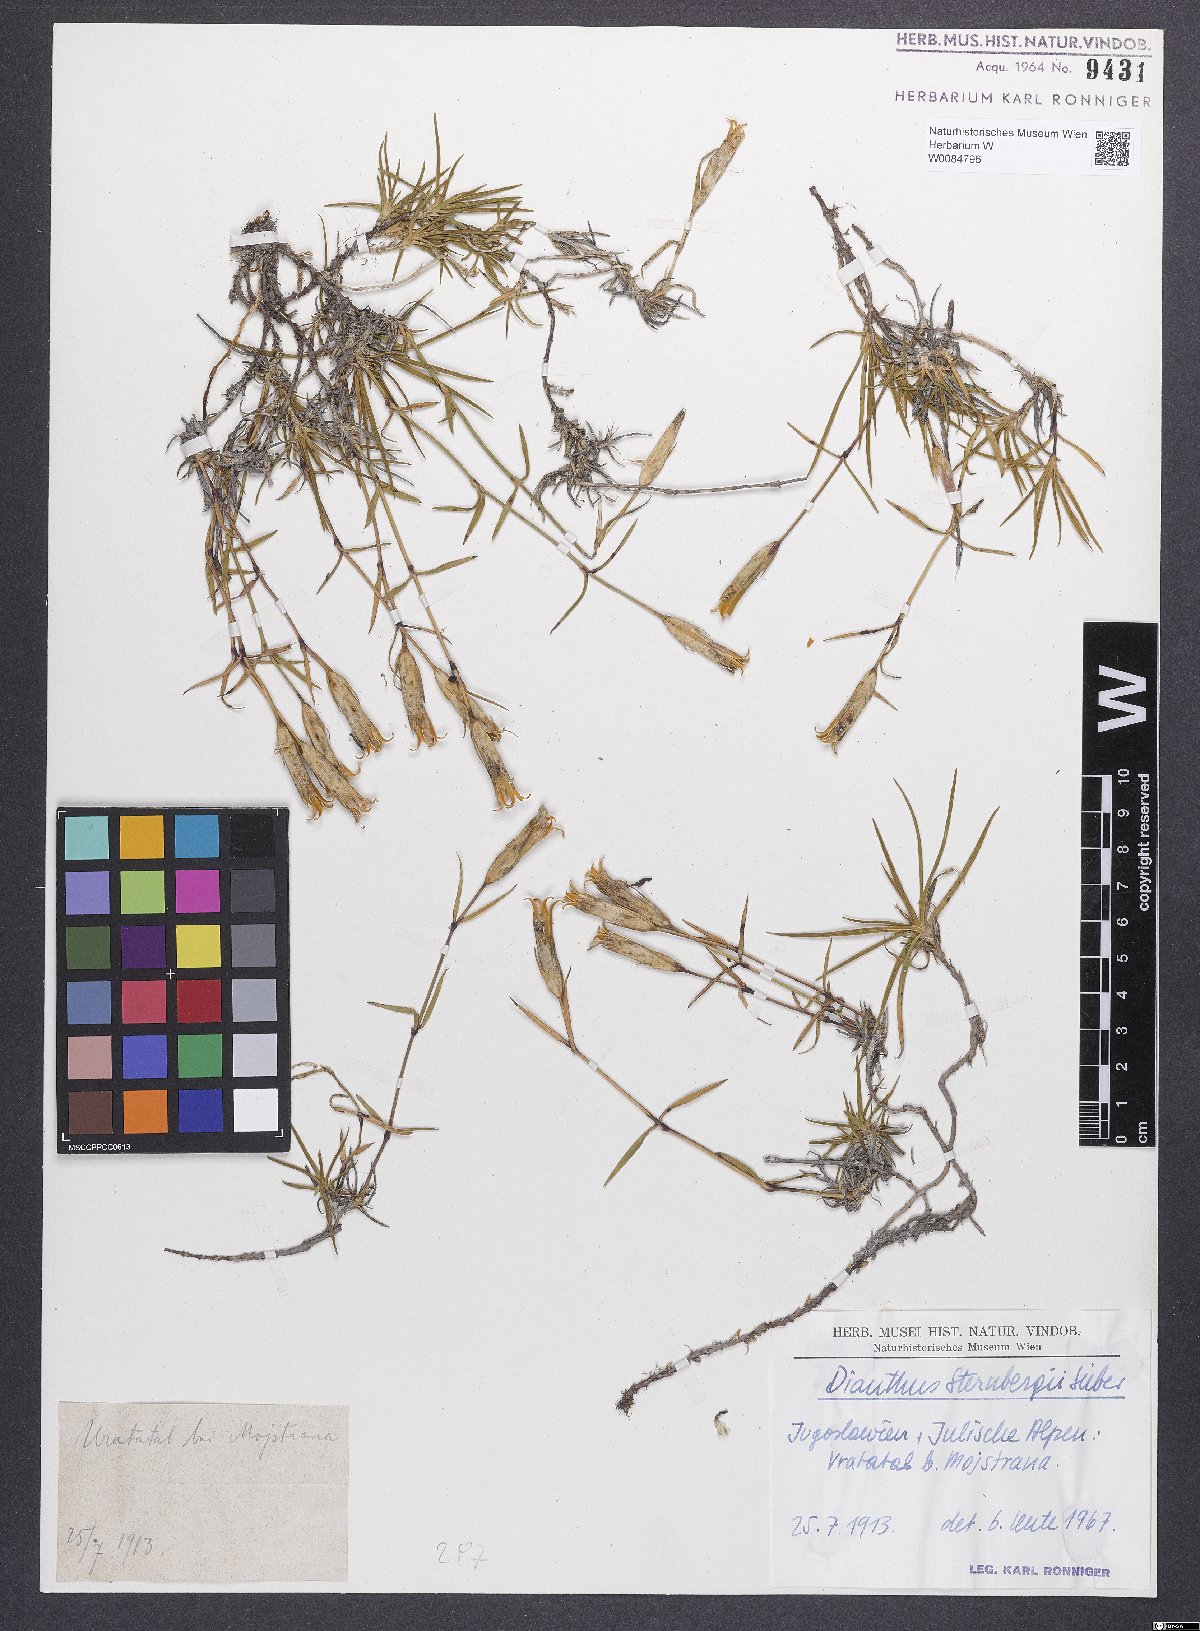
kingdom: Plantae
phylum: Tracheophyta
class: Magnoliopsida
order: Caryophyllales
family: Caryophyllaceae
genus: Dianthus
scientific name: Dianthus monspessulanus
